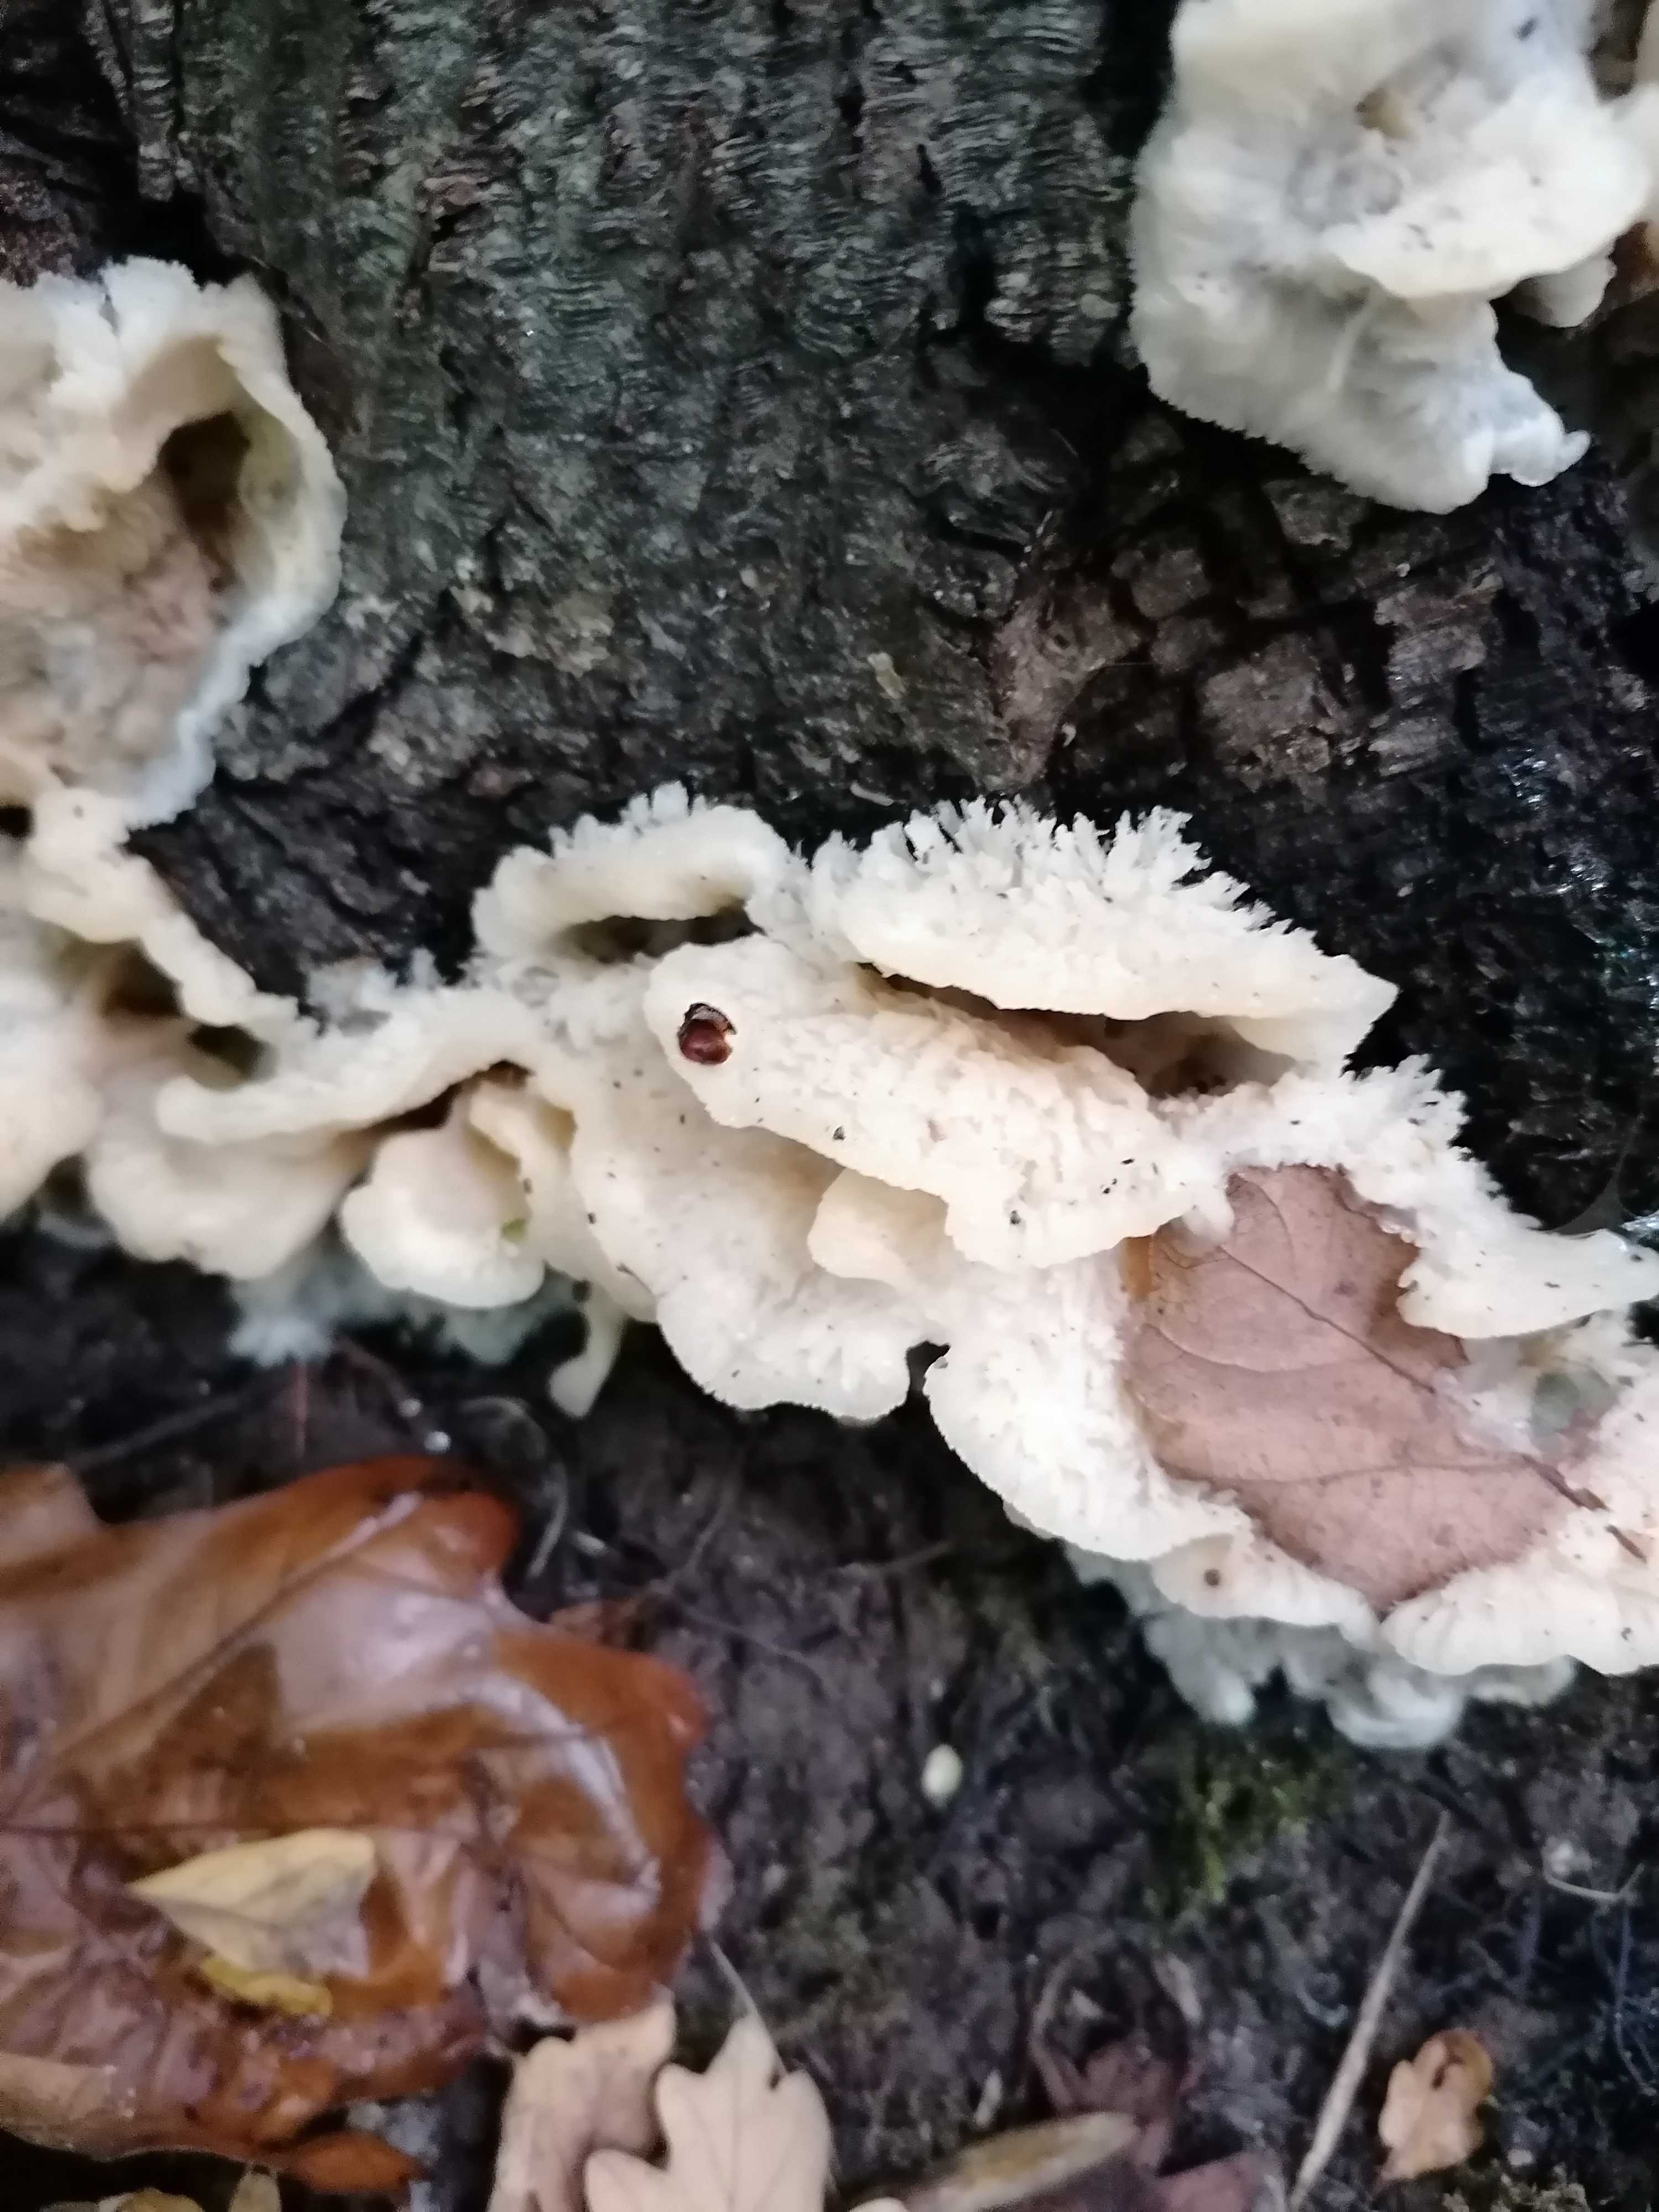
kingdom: Fungi
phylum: Basidiomycota
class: Agaricomycetes
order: Polyporales
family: Meruliaceae
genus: Phlebia
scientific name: Phlebia tremellosa
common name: bævrende åresvamp
